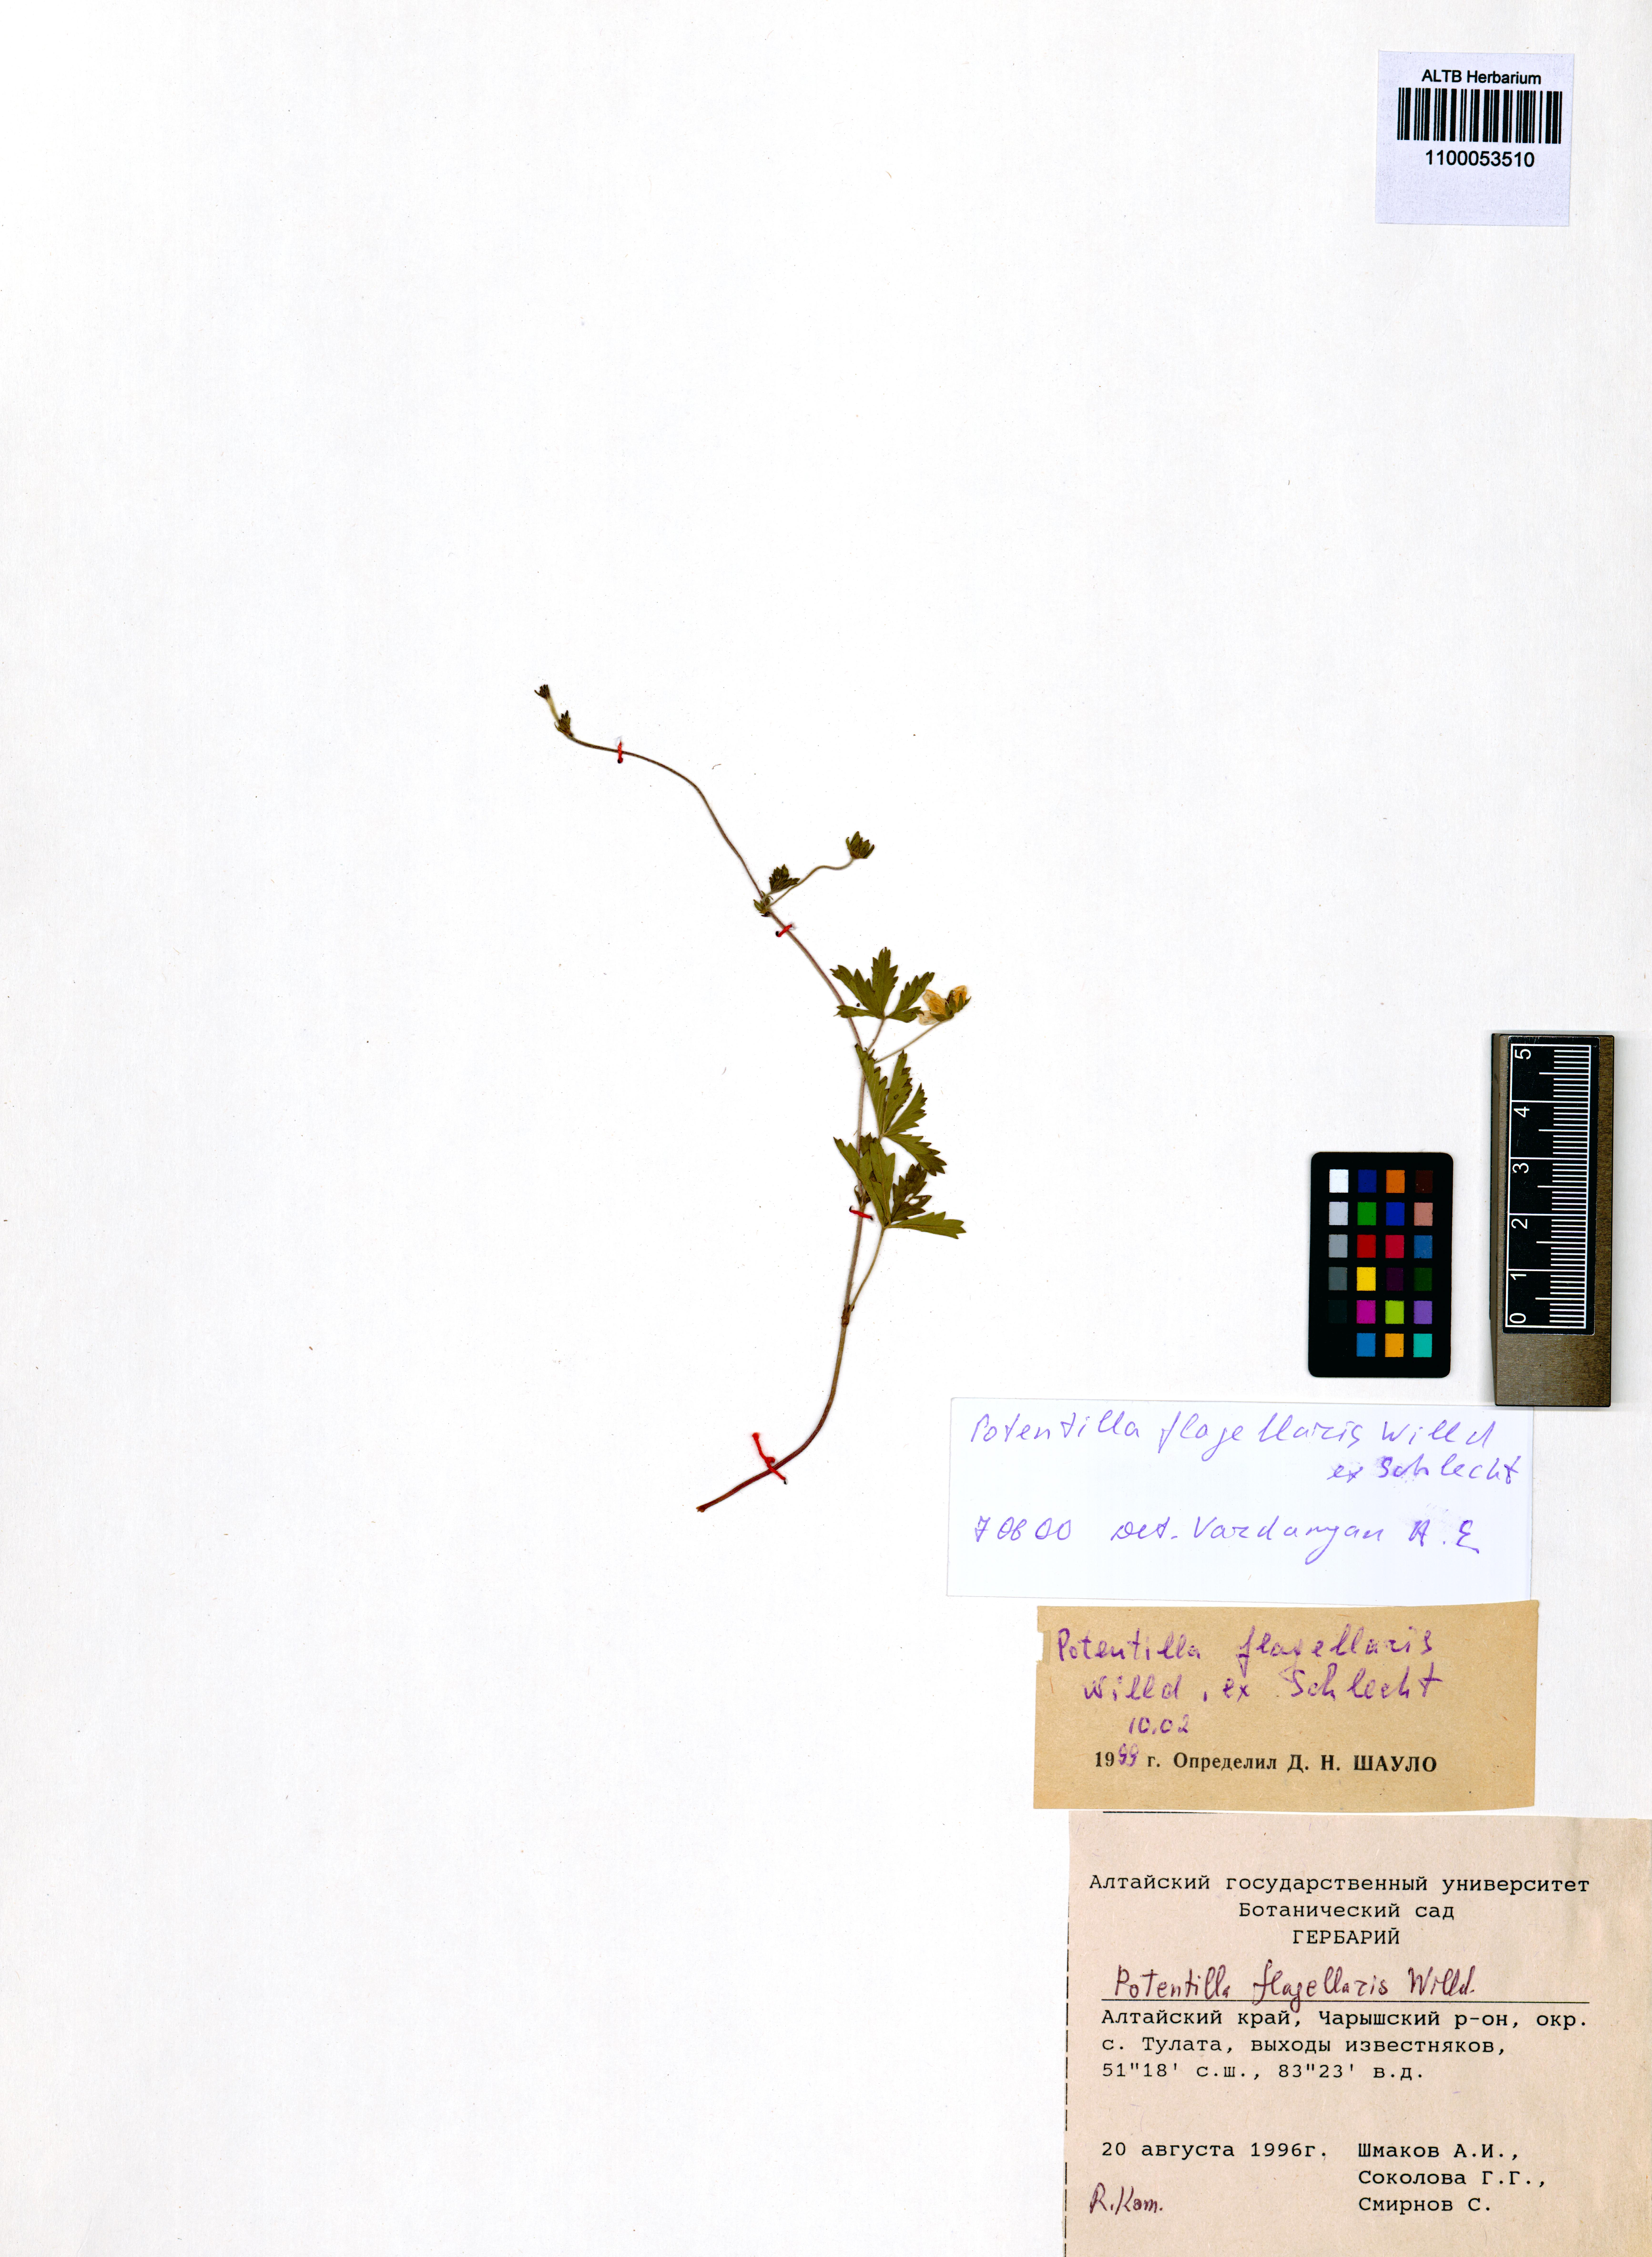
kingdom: Plantae
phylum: Tracheophyta
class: Magnoliopsida
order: Rosales
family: Rosaceae
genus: Potentilla
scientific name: Potentilla flagellaris
